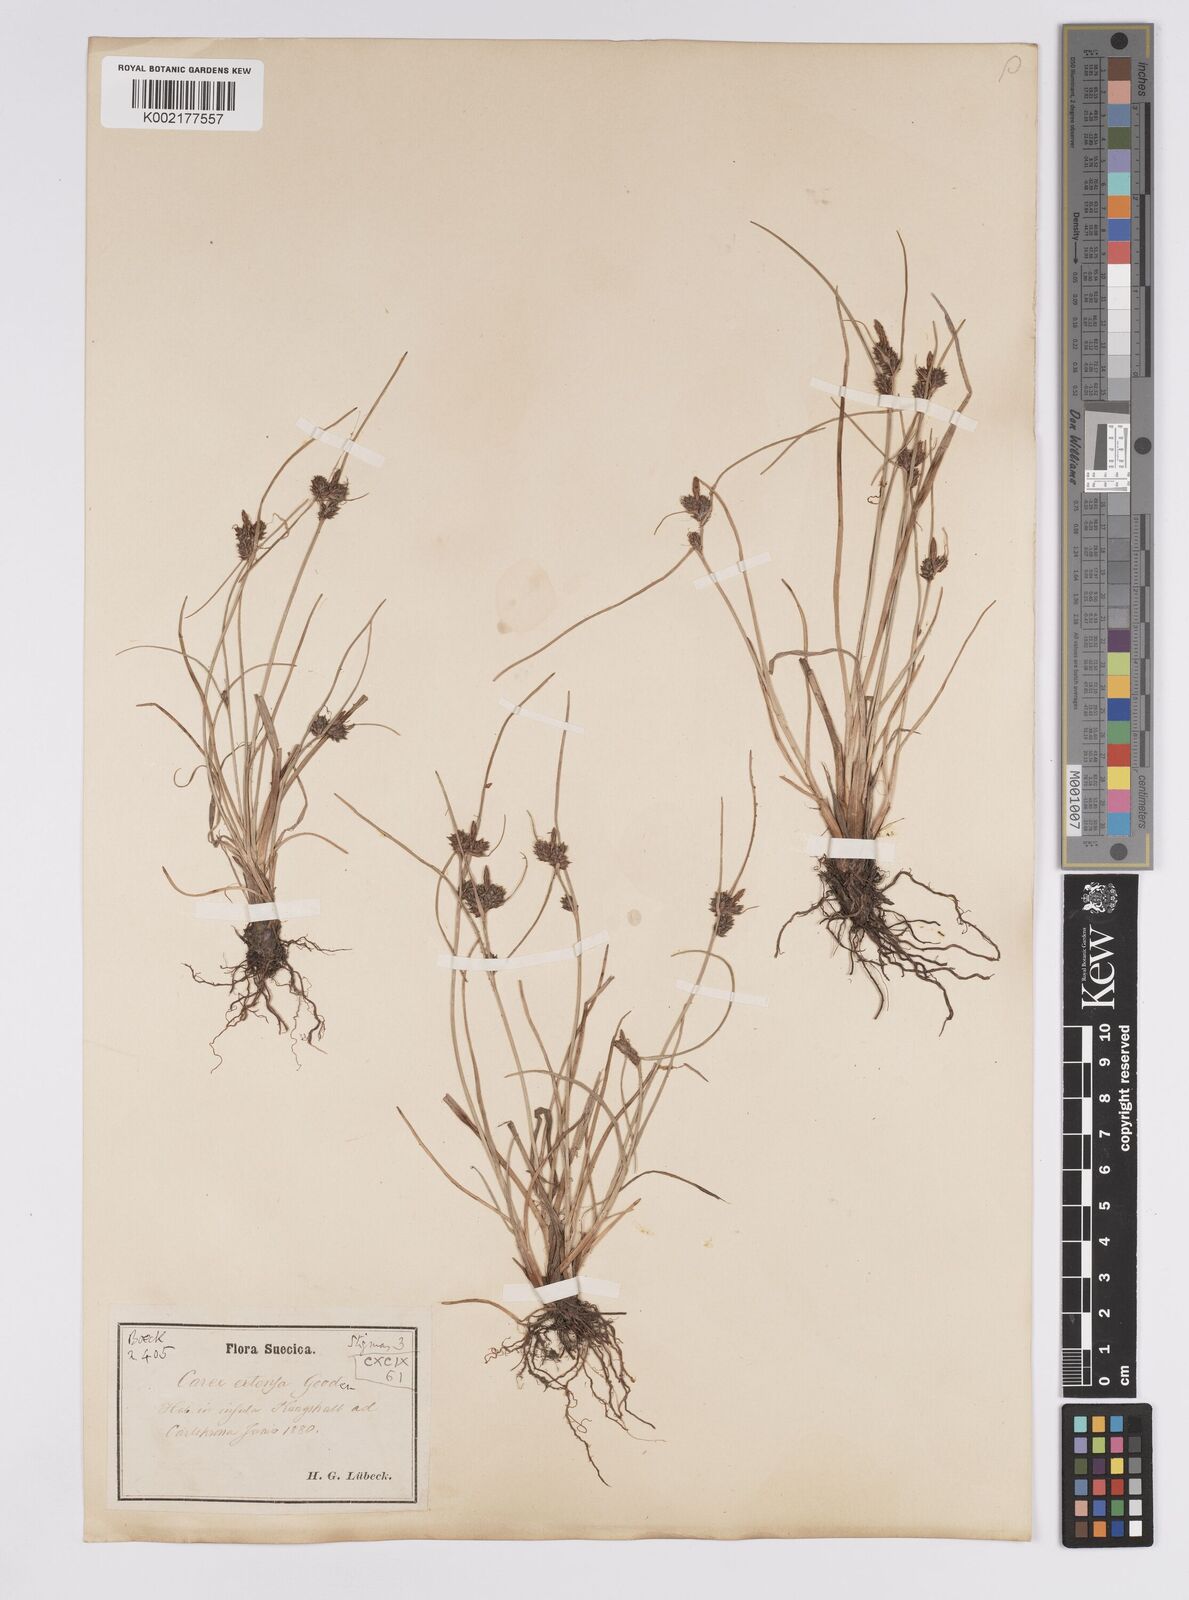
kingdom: Plantae
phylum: Tracheophyta
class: Liliopsida
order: Poales
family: Cyperaceae
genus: Carex
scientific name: Carex extensa
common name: Long-bracted sedge
